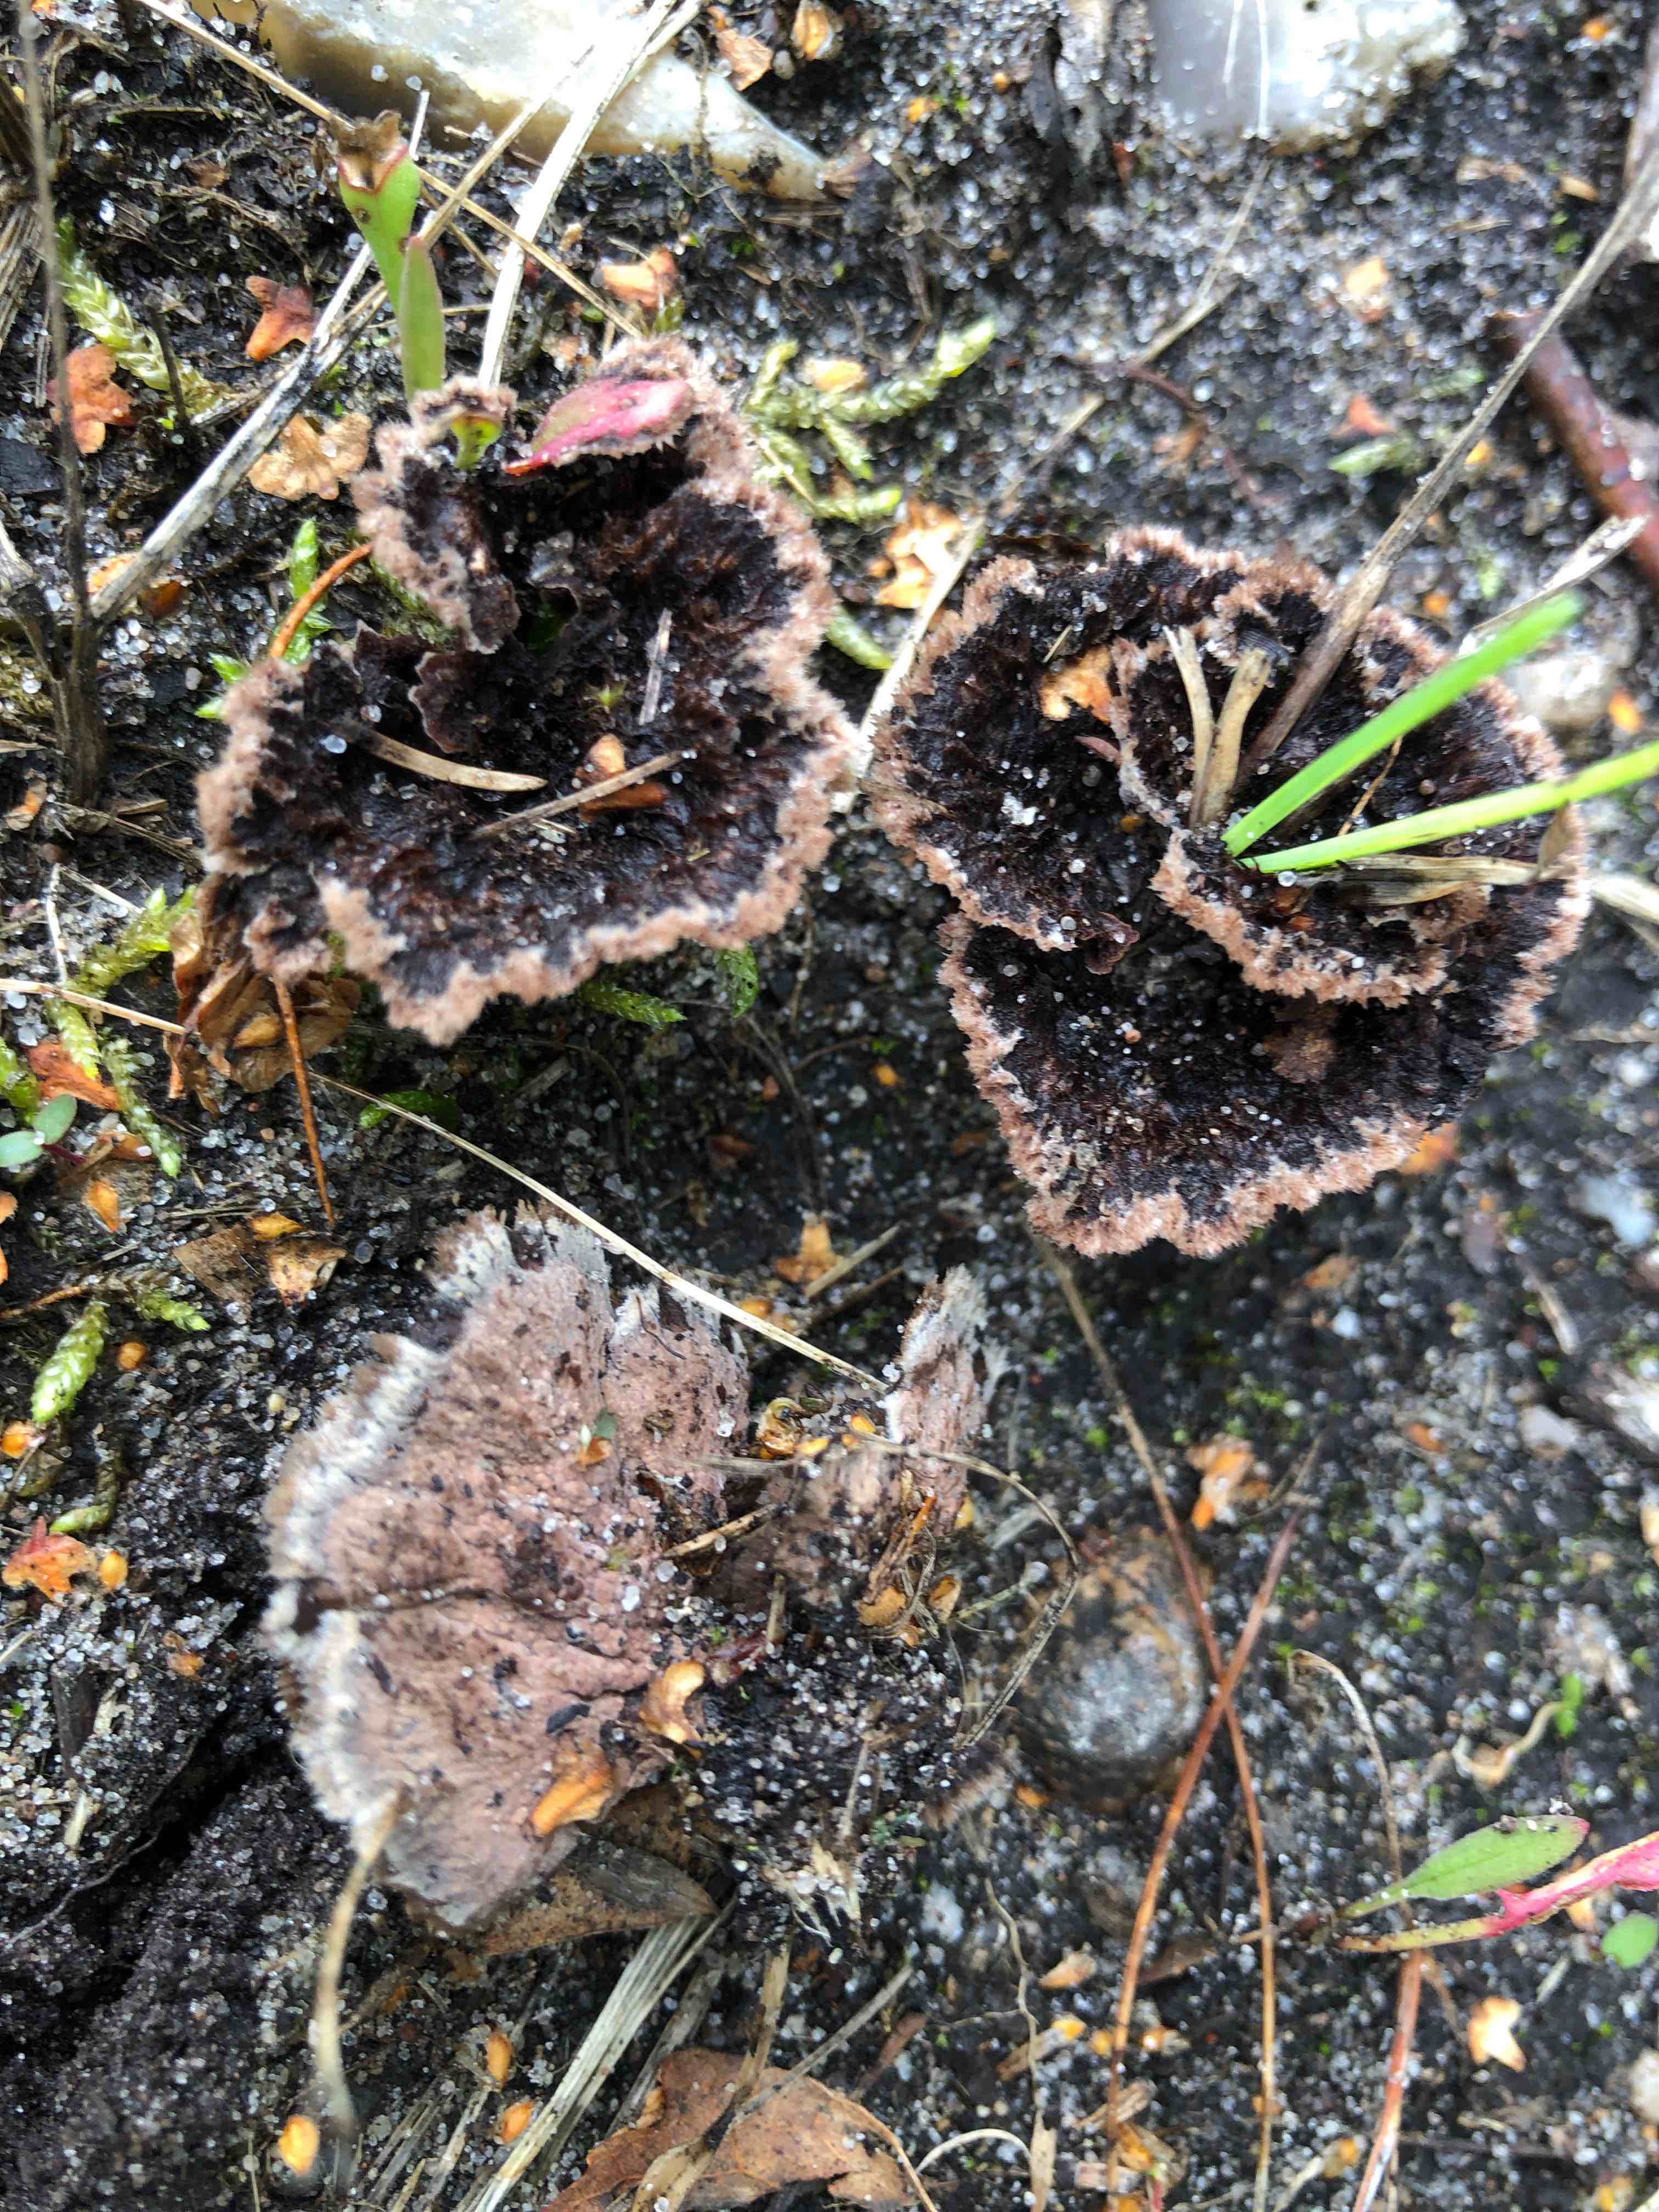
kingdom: Fungi
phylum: Basidiomycota
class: Agaricomycetes
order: Thelephorales
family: Thelephoraceae
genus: Thelephora
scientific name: Thelephora terrestris
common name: fliget frynsesvamp
